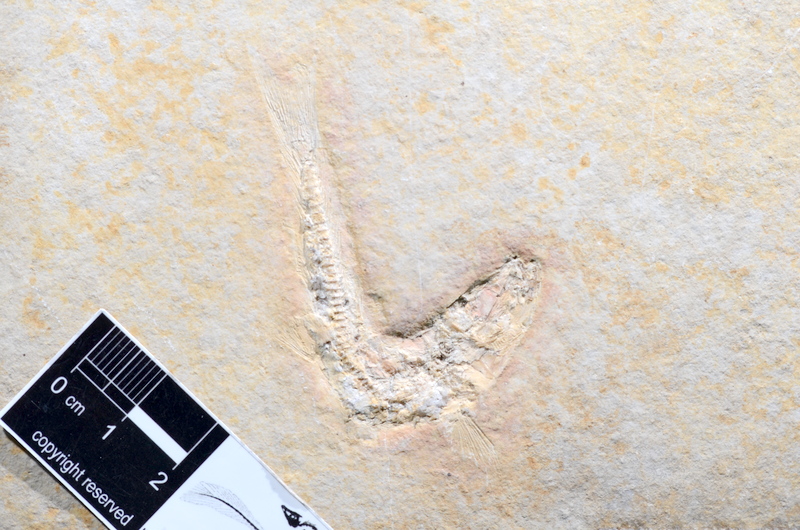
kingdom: Animalia
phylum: Chordata
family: Ascalaboidae
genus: Tharsis
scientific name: Tharsis dubius
